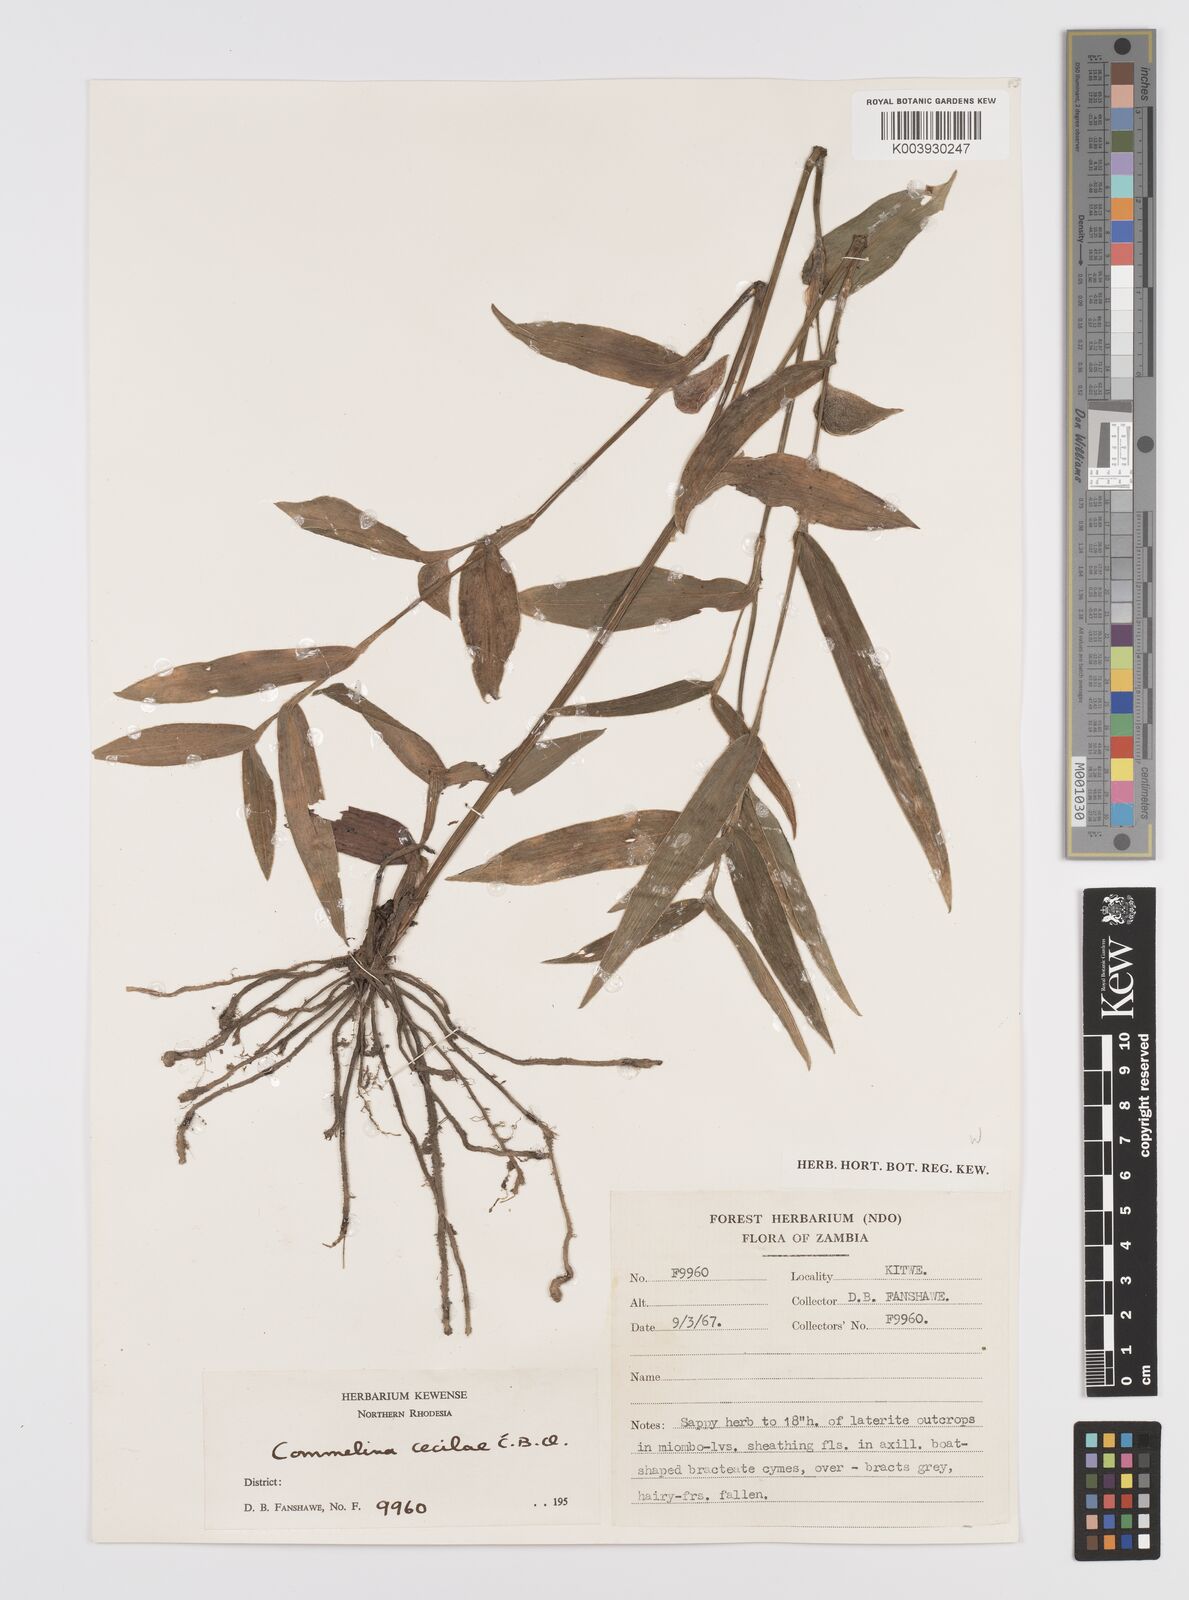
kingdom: Plantae
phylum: Tracheophyta
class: Liliopsida
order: Commelinales
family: Commelinaceae
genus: Commelina
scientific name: Commelina schweinfurthii
